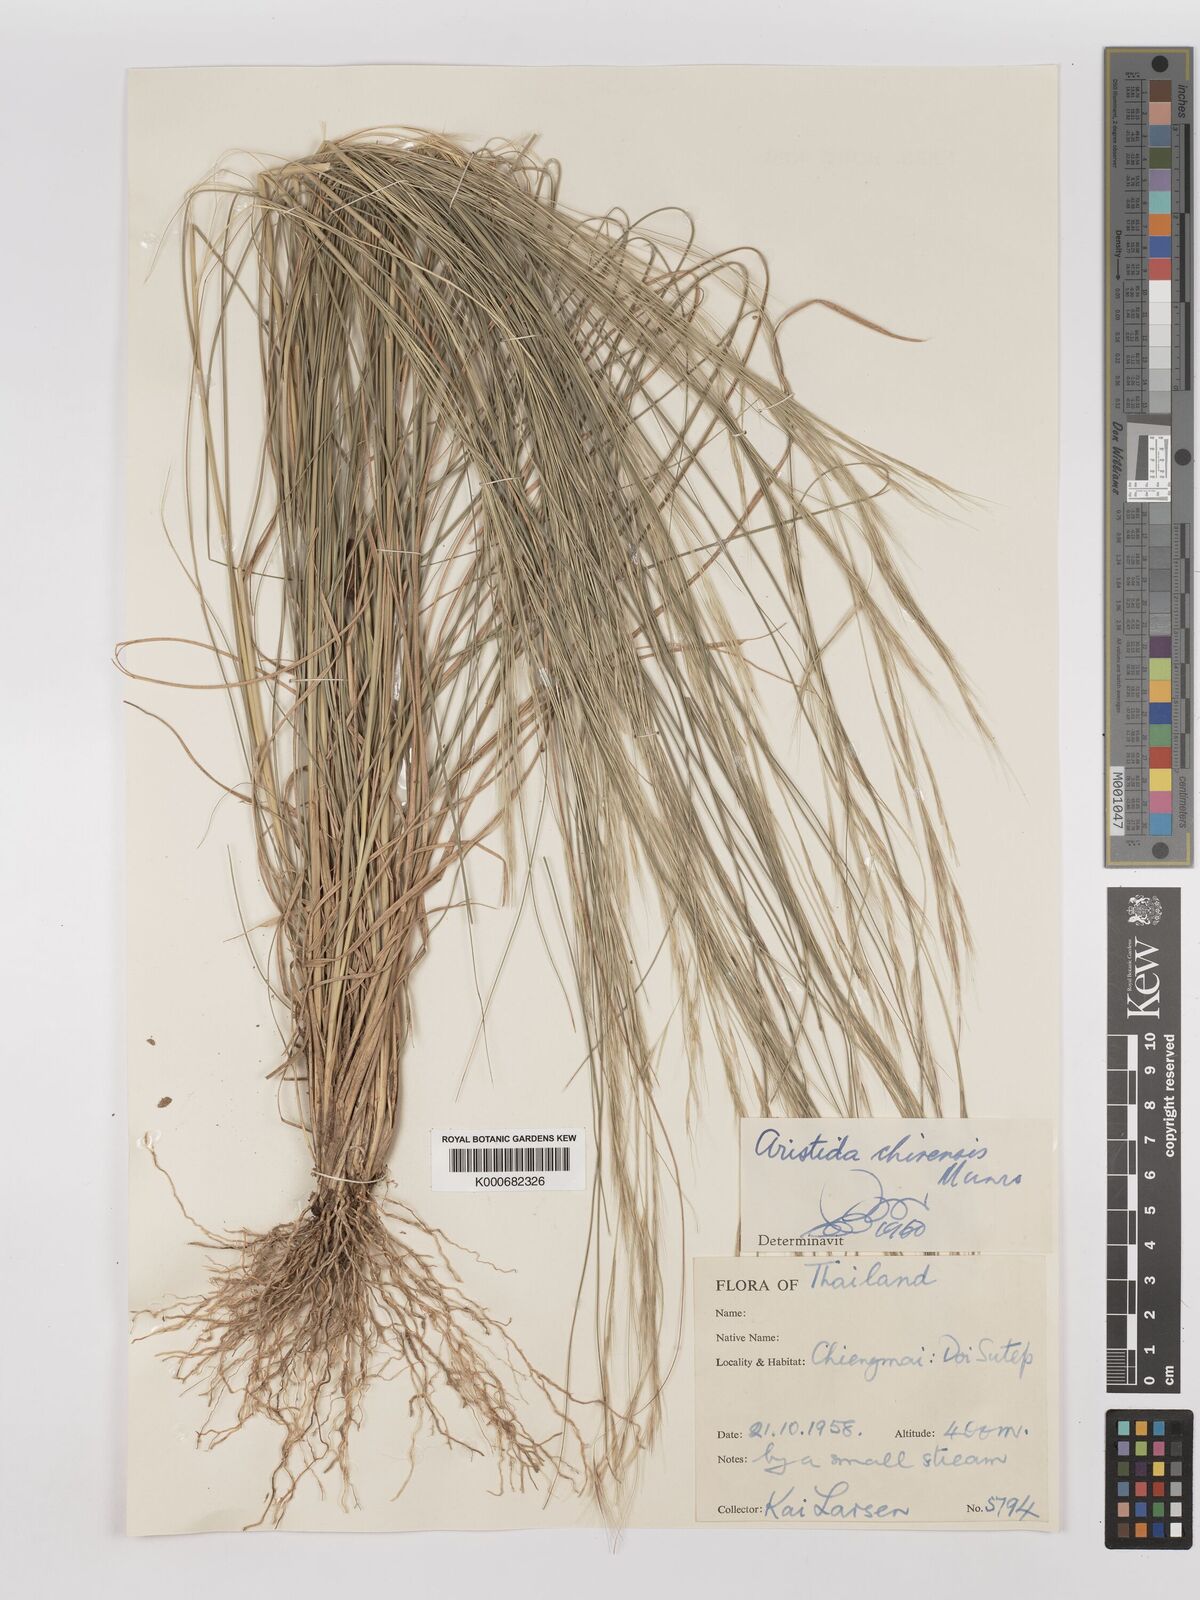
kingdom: Plantae
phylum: Tracheophyta
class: Liliopsida
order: Poales
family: Poaceae
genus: Aristida
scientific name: Aristida chinensis
